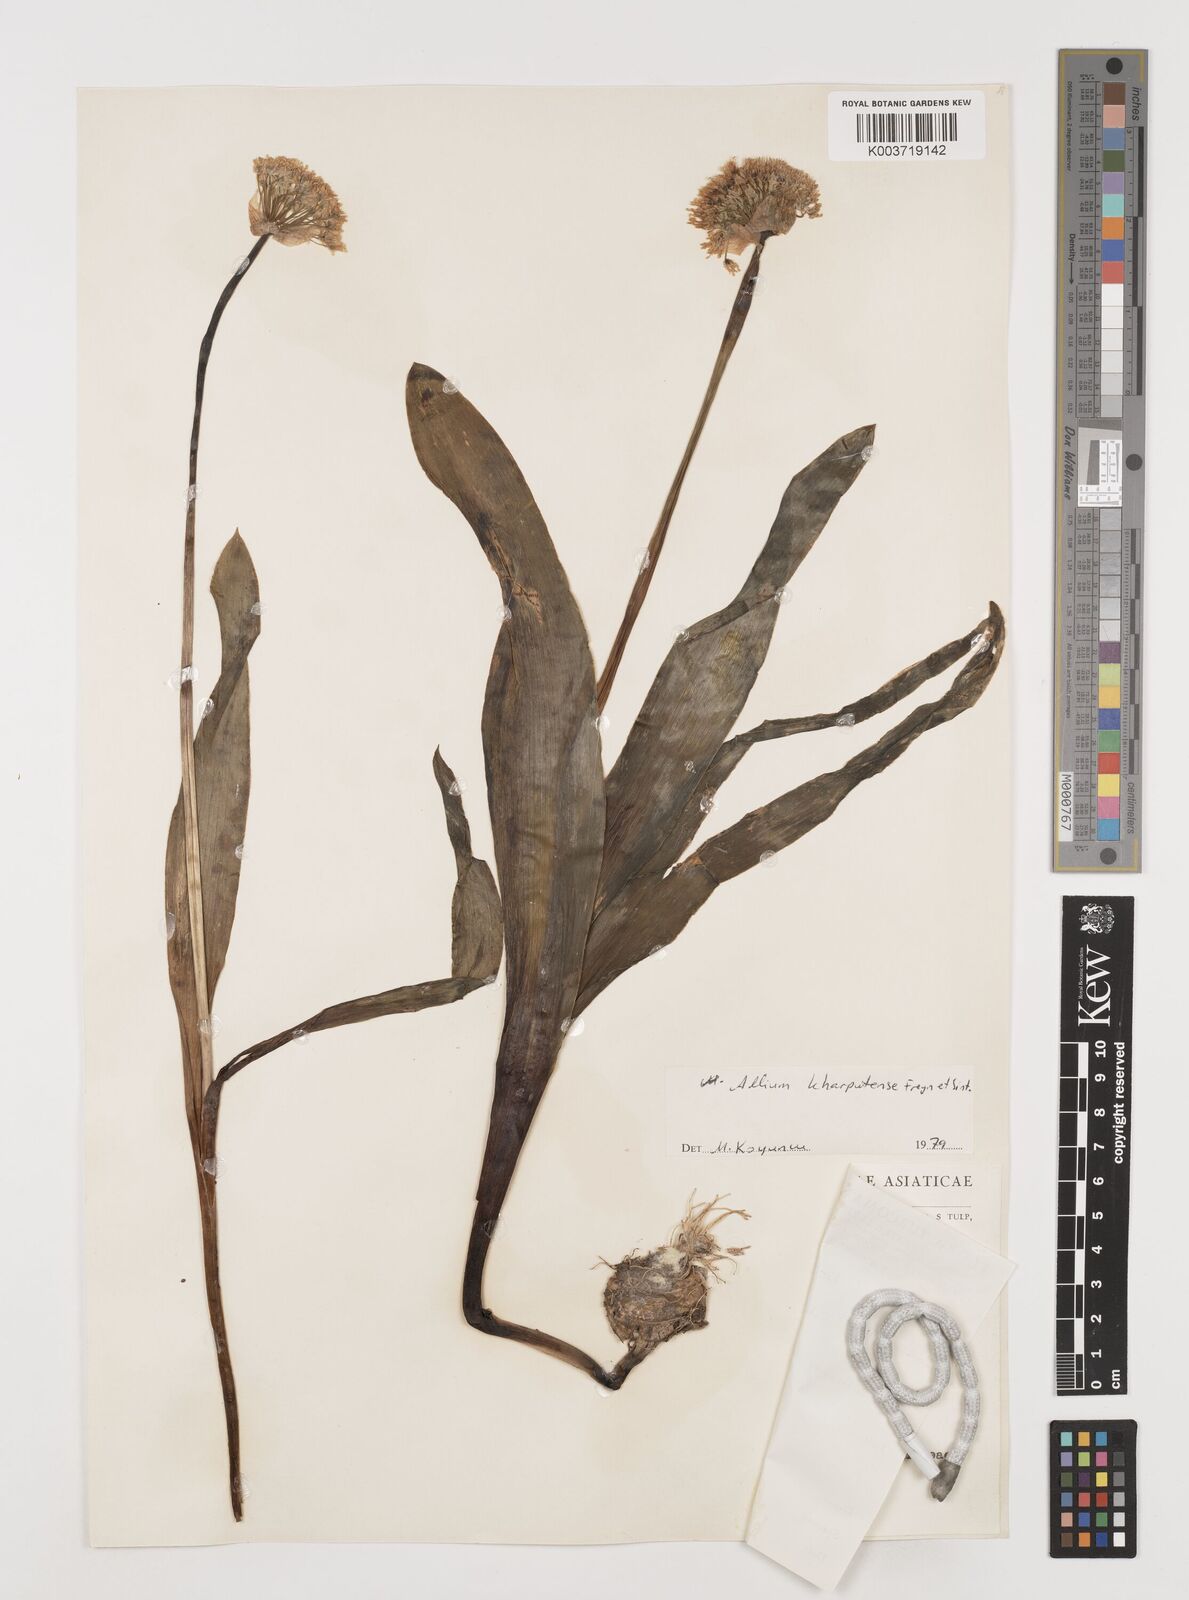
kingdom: Plantae
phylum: Tracheophyta
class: Liliopsida
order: Asparagales
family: Amaryllidaceae
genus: Allium
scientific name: Allium kharputense
